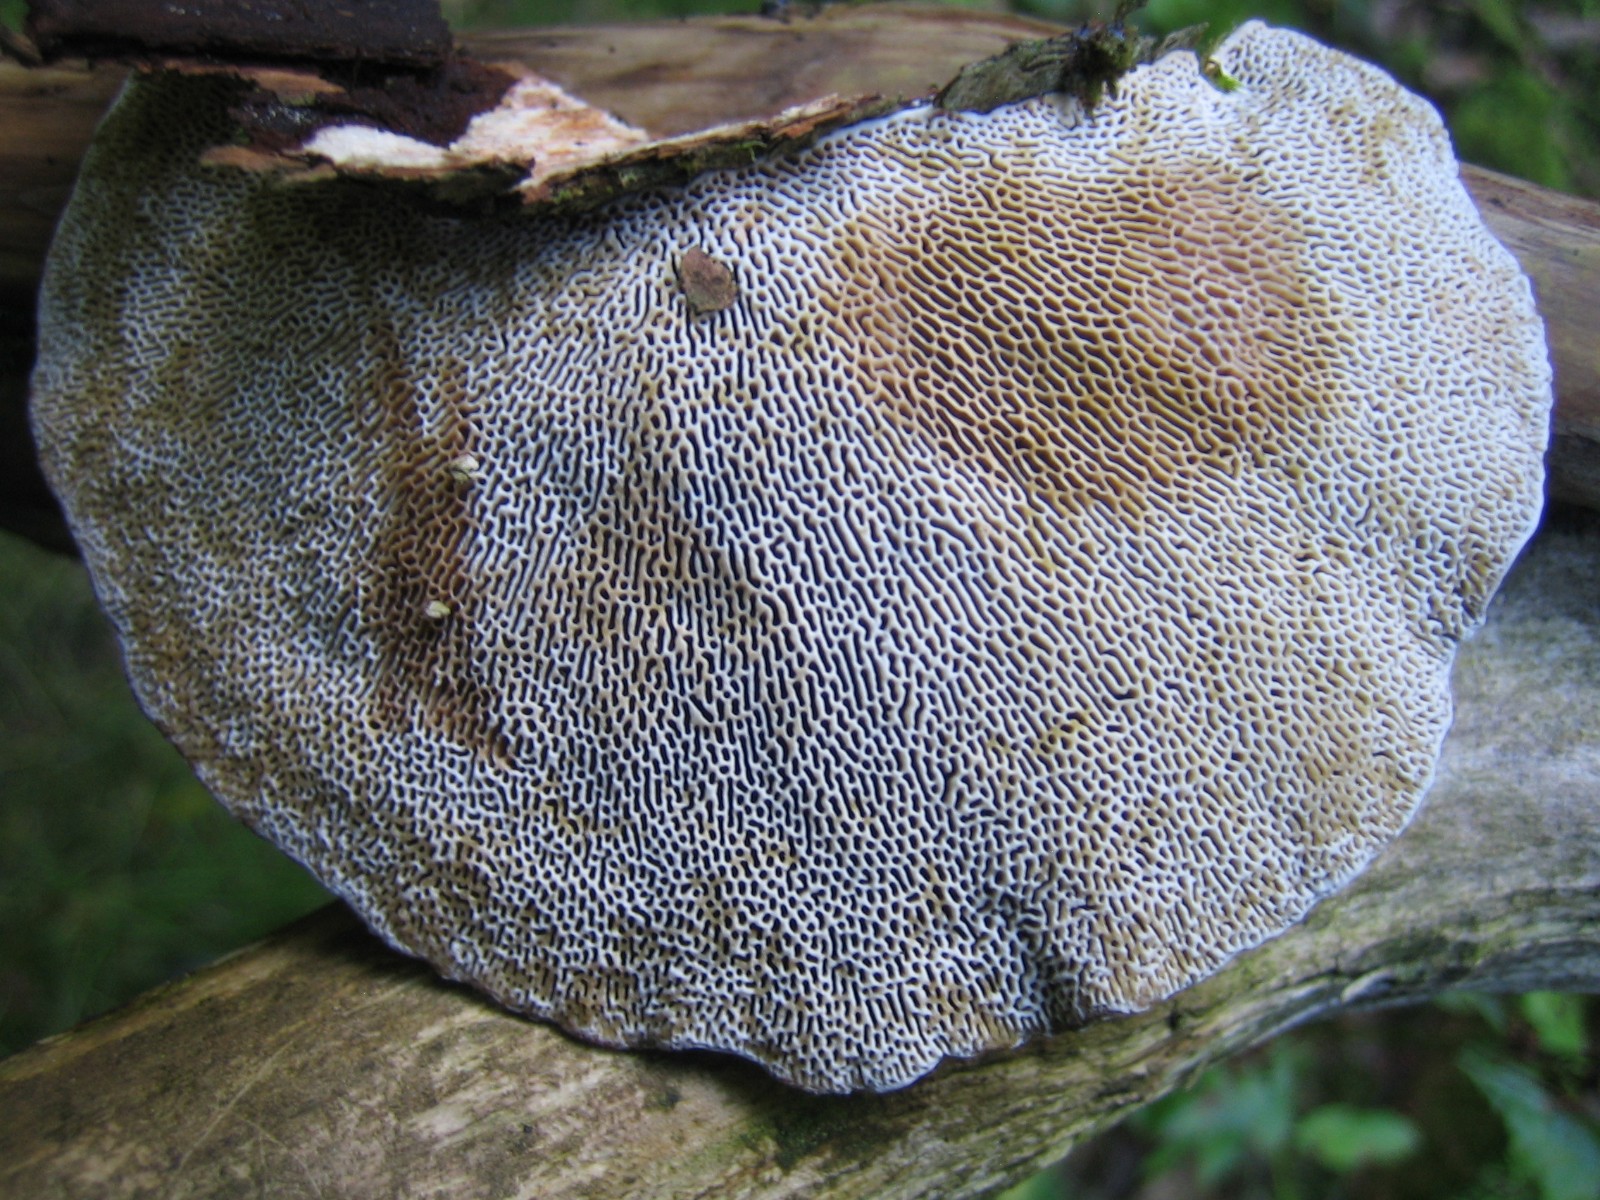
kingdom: Fungi
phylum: Basidiomycota
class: Agaricomycetes
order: Polyporales
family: Polyporaceae
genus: Daedaleopsis
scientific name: Daedaleopsis confragosa
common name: rødmende læderporesvamp
